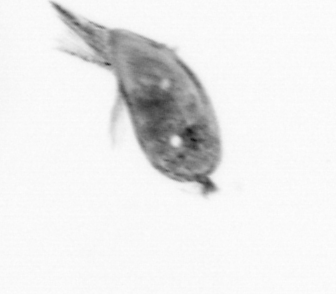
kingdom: Animalia
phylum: Arthropoda
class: Maxillopoda
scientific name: Maxillopoda
